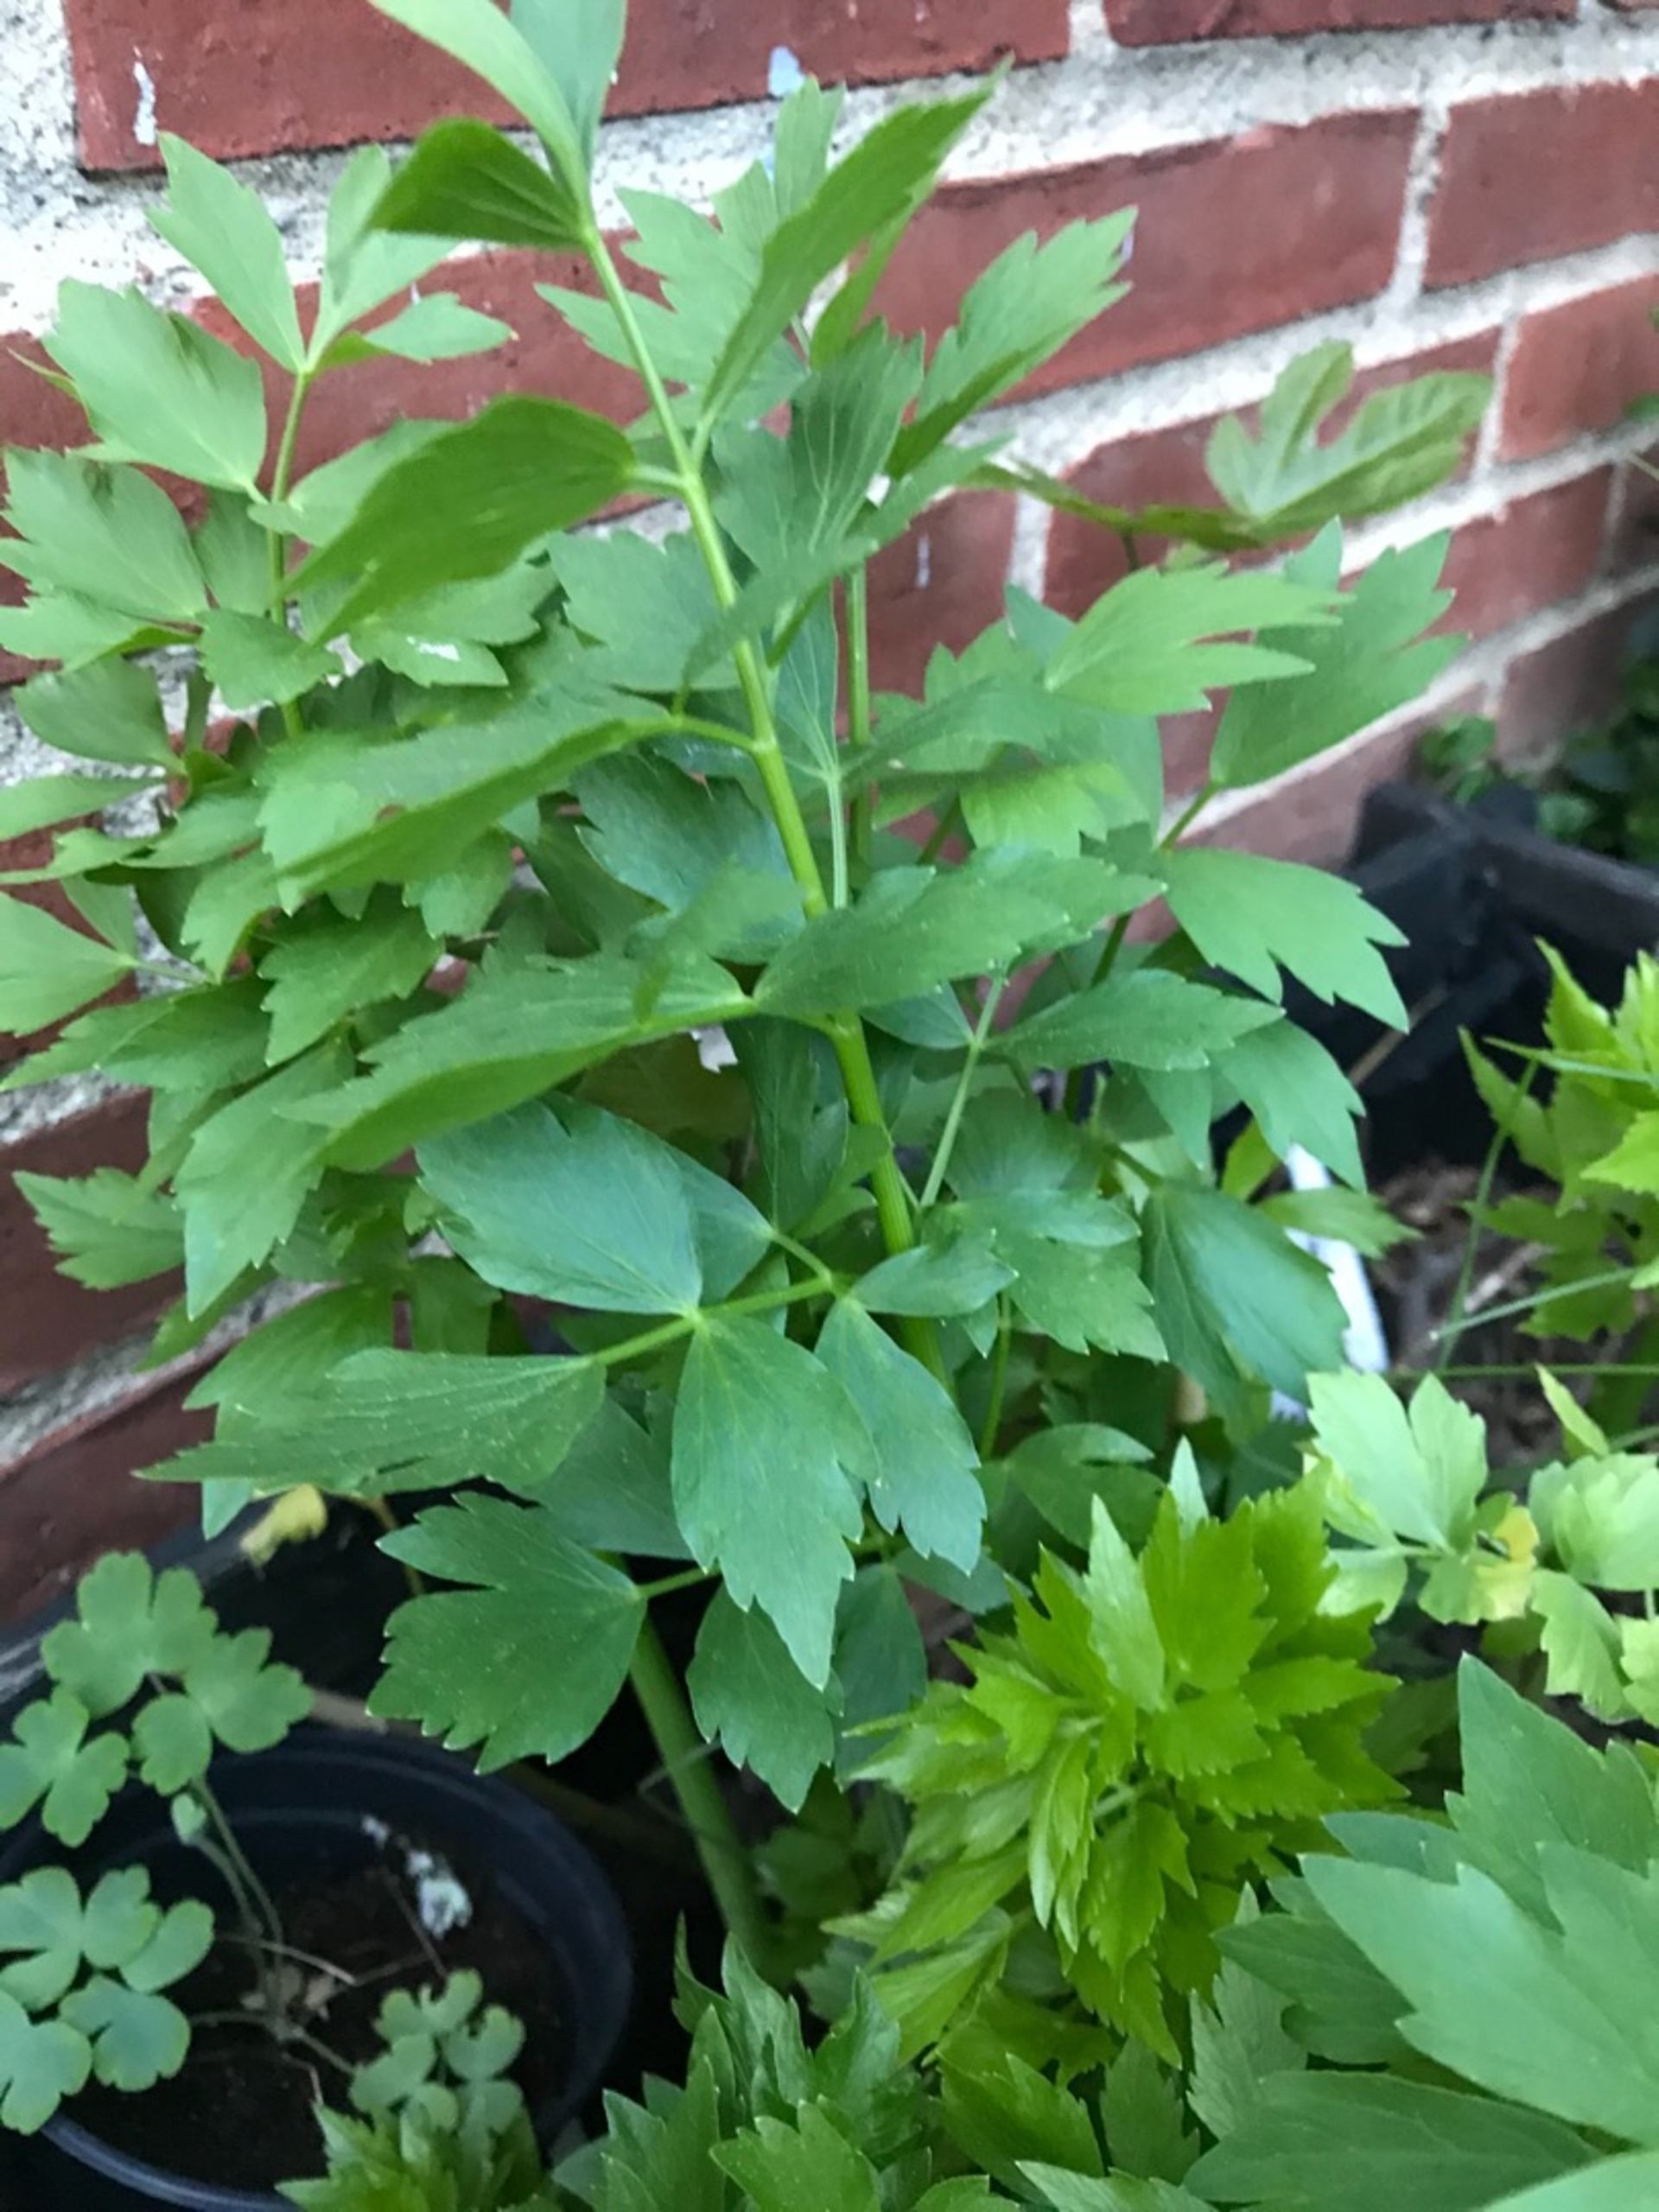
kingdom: Plantae
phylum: Tracheophyta
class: Magnoliopsida
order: Apiales
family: Apiaceae
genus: Levisticum
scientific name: Levisticum officinale
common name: Løvstikke
